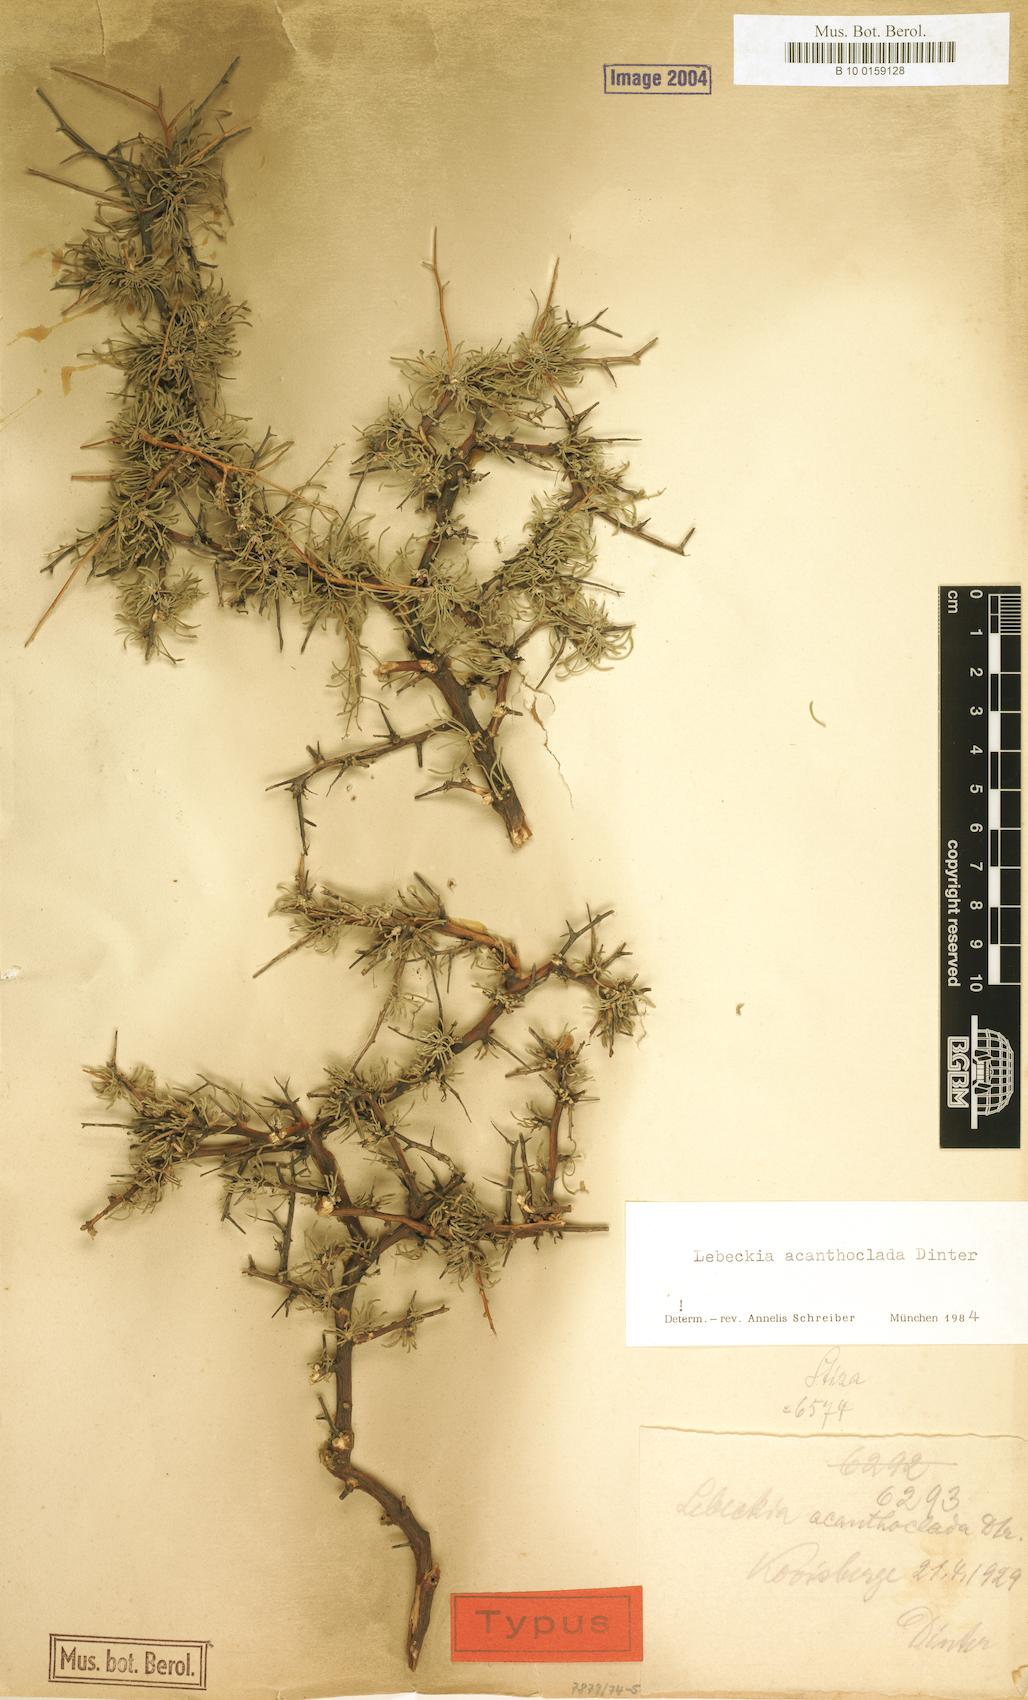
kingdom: Plantae
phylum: Tracheophyta
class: Magnoliopsida
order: Fabales
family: Fabaceae
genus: Calobota
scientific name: Calobota acanthoclada
